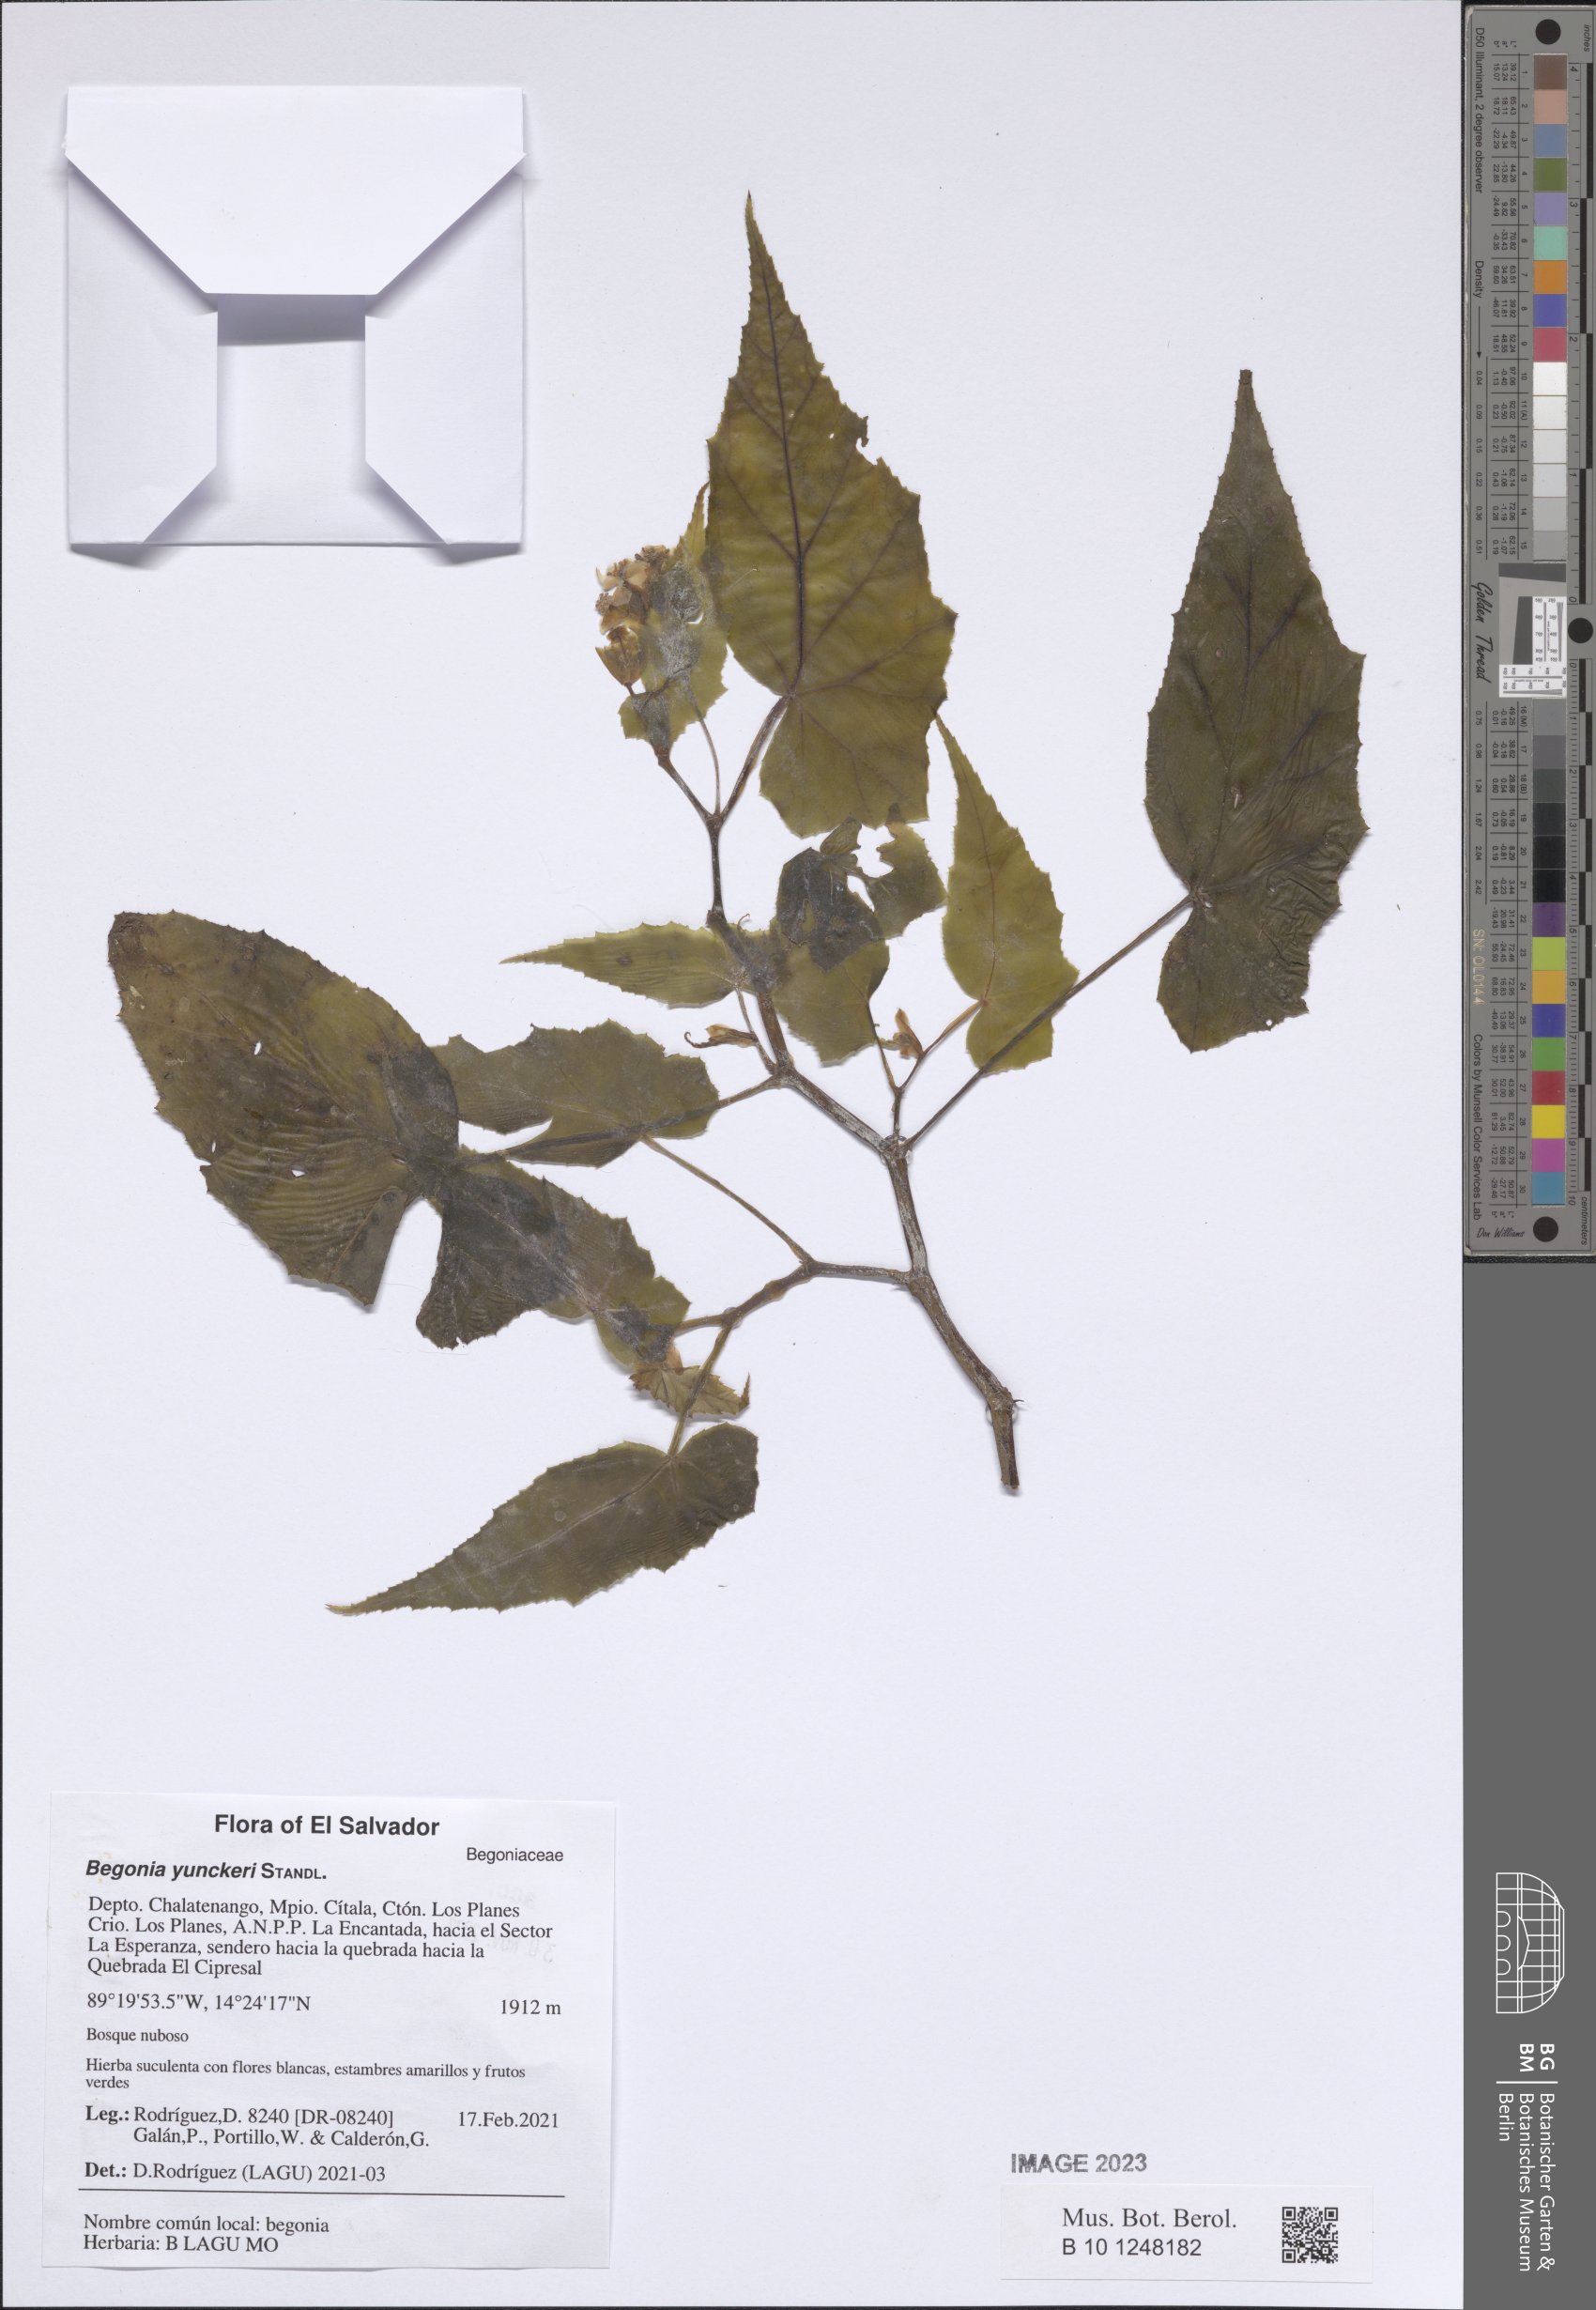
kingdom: Plantae
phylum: Tracheophyta
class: Magnoliopsida
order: Cucurbitales
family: Begoniaceae
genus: Begonia
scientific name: Begonia yunckeri
